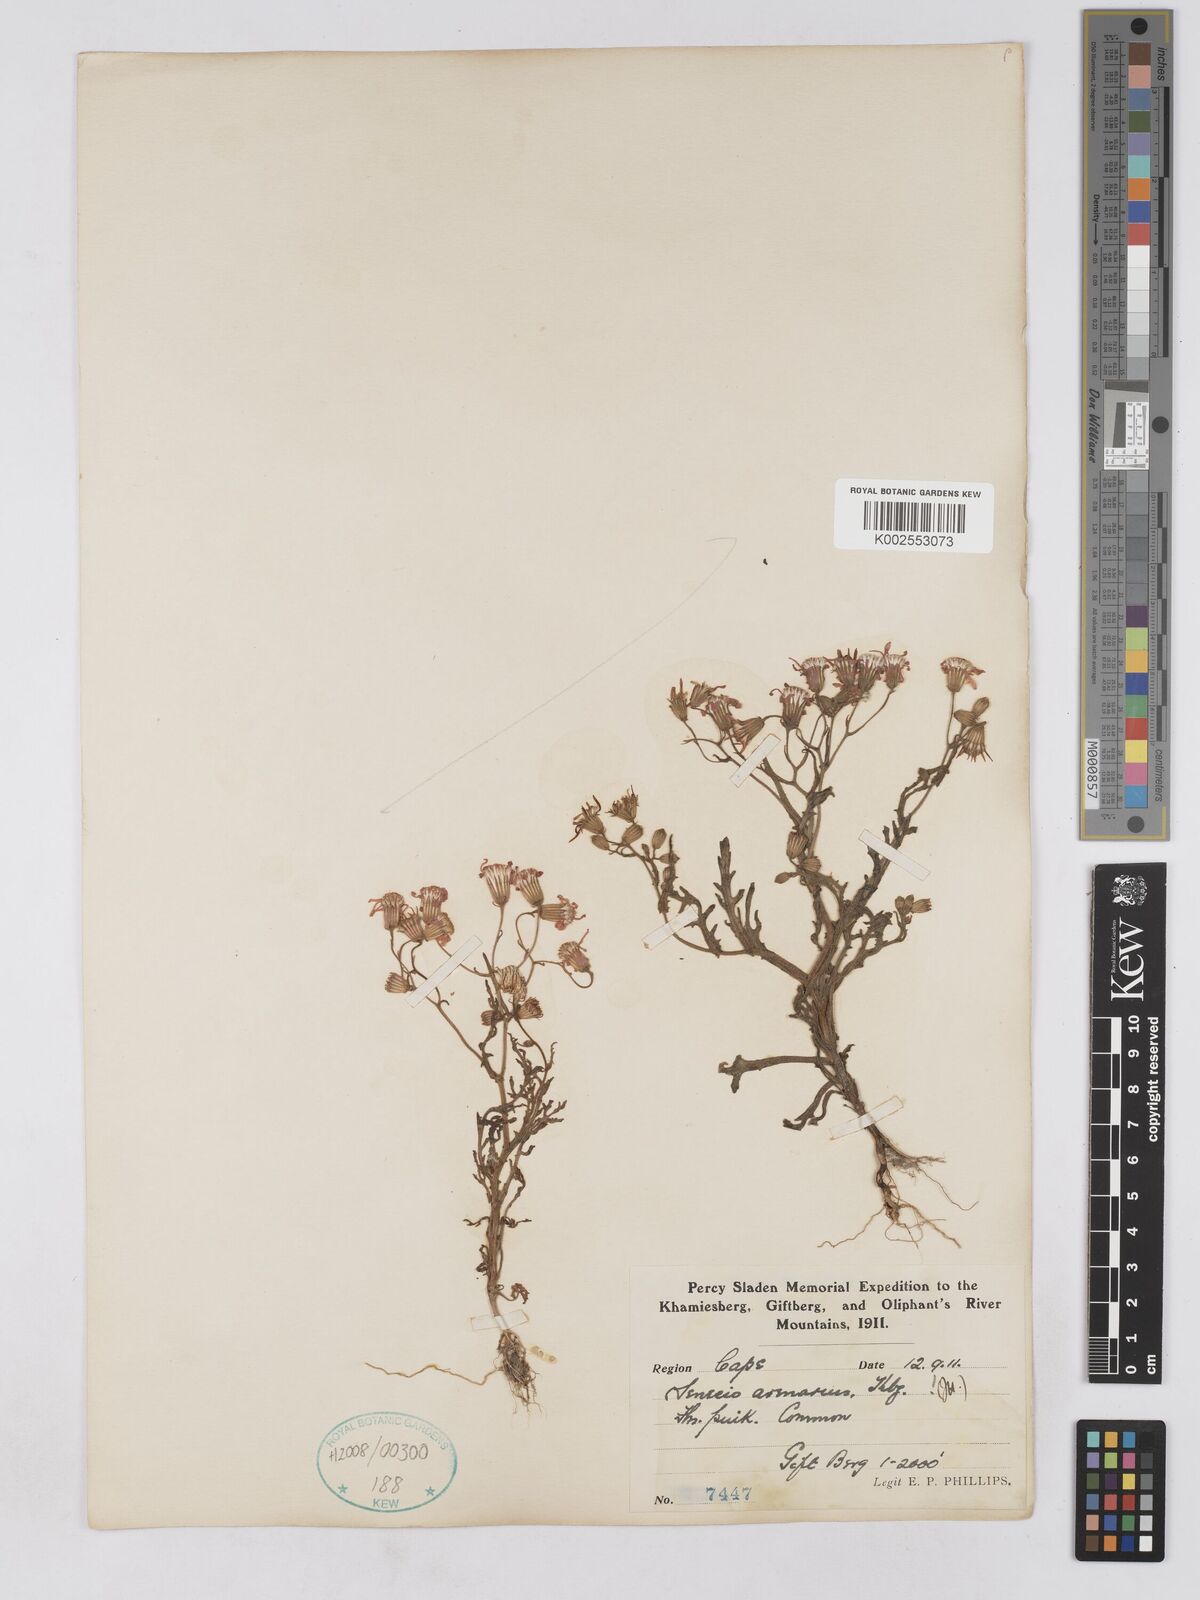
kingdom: Plantae
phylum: Tracheophyta
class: Magnoliopsida
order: Asterales
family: Asteraceae
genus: Senecio
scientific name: Senecio arenarius
